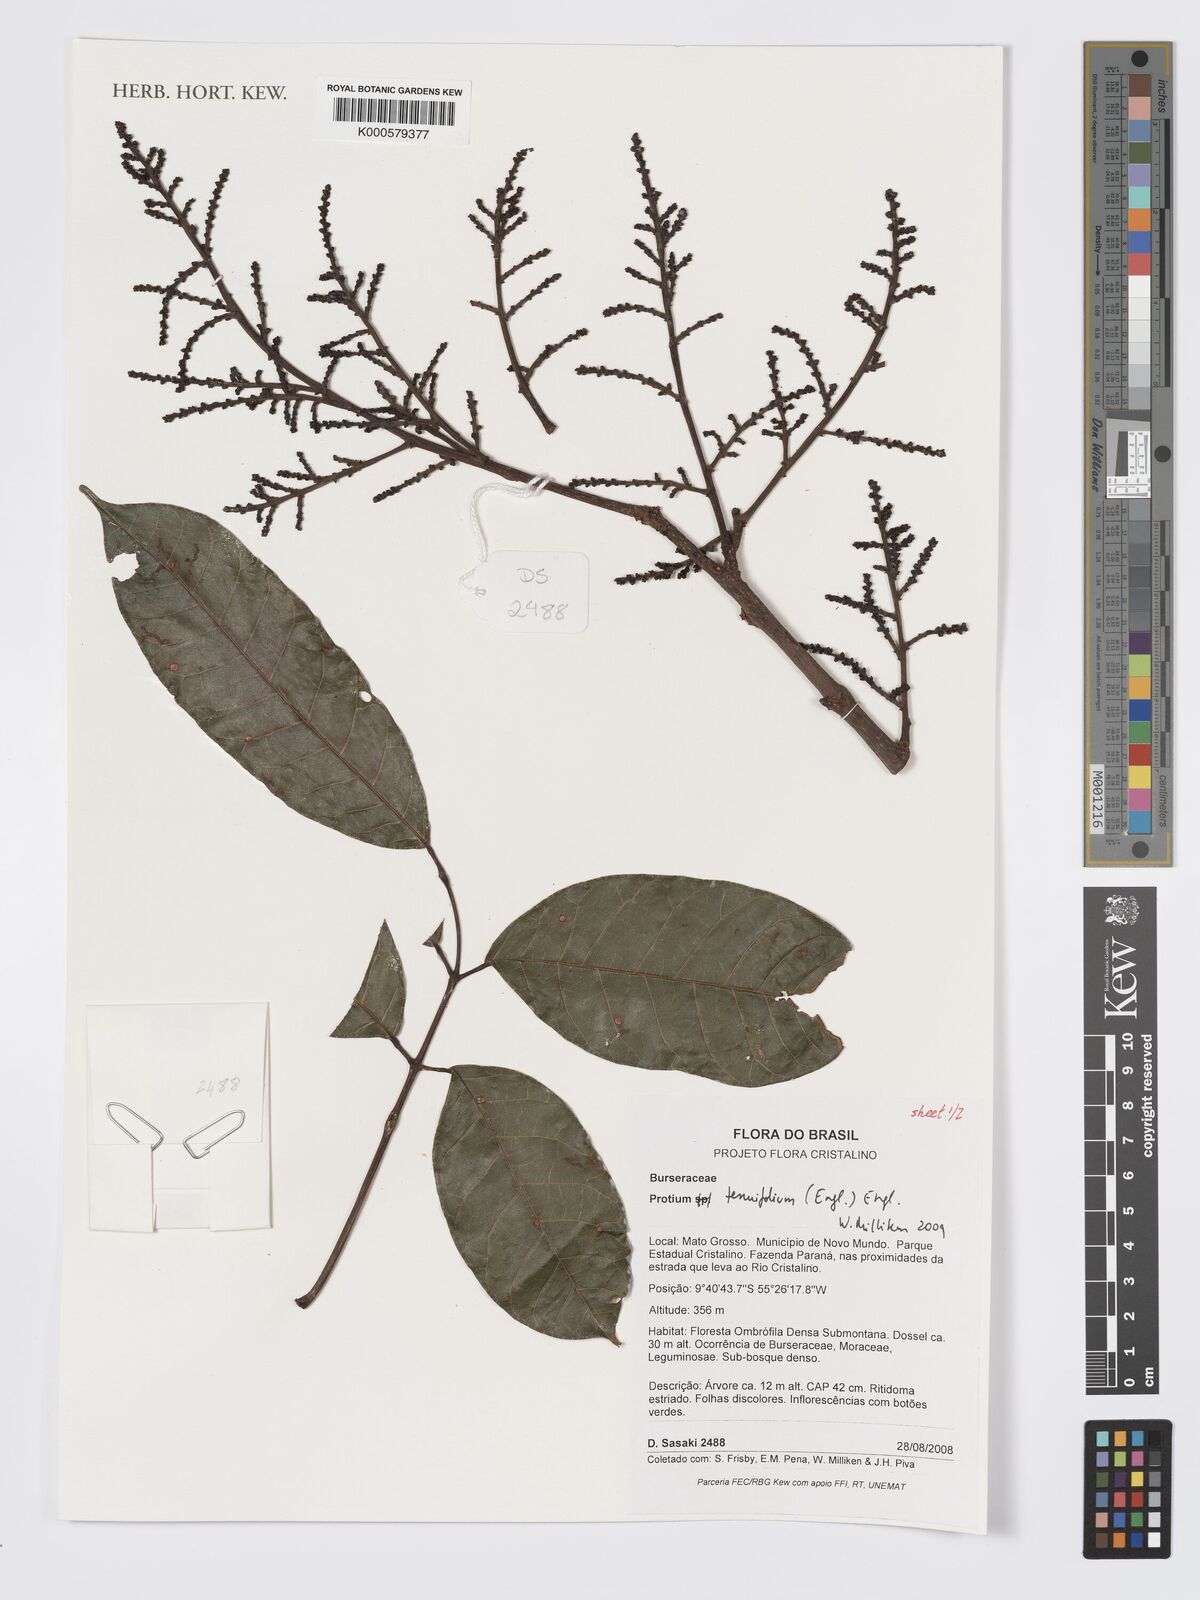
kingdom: Plantae
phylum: Tracheophyta
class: Magnoliopsida
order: Sapindales
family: Burseraceae
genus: Protium
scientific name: Protium tenuifolium
